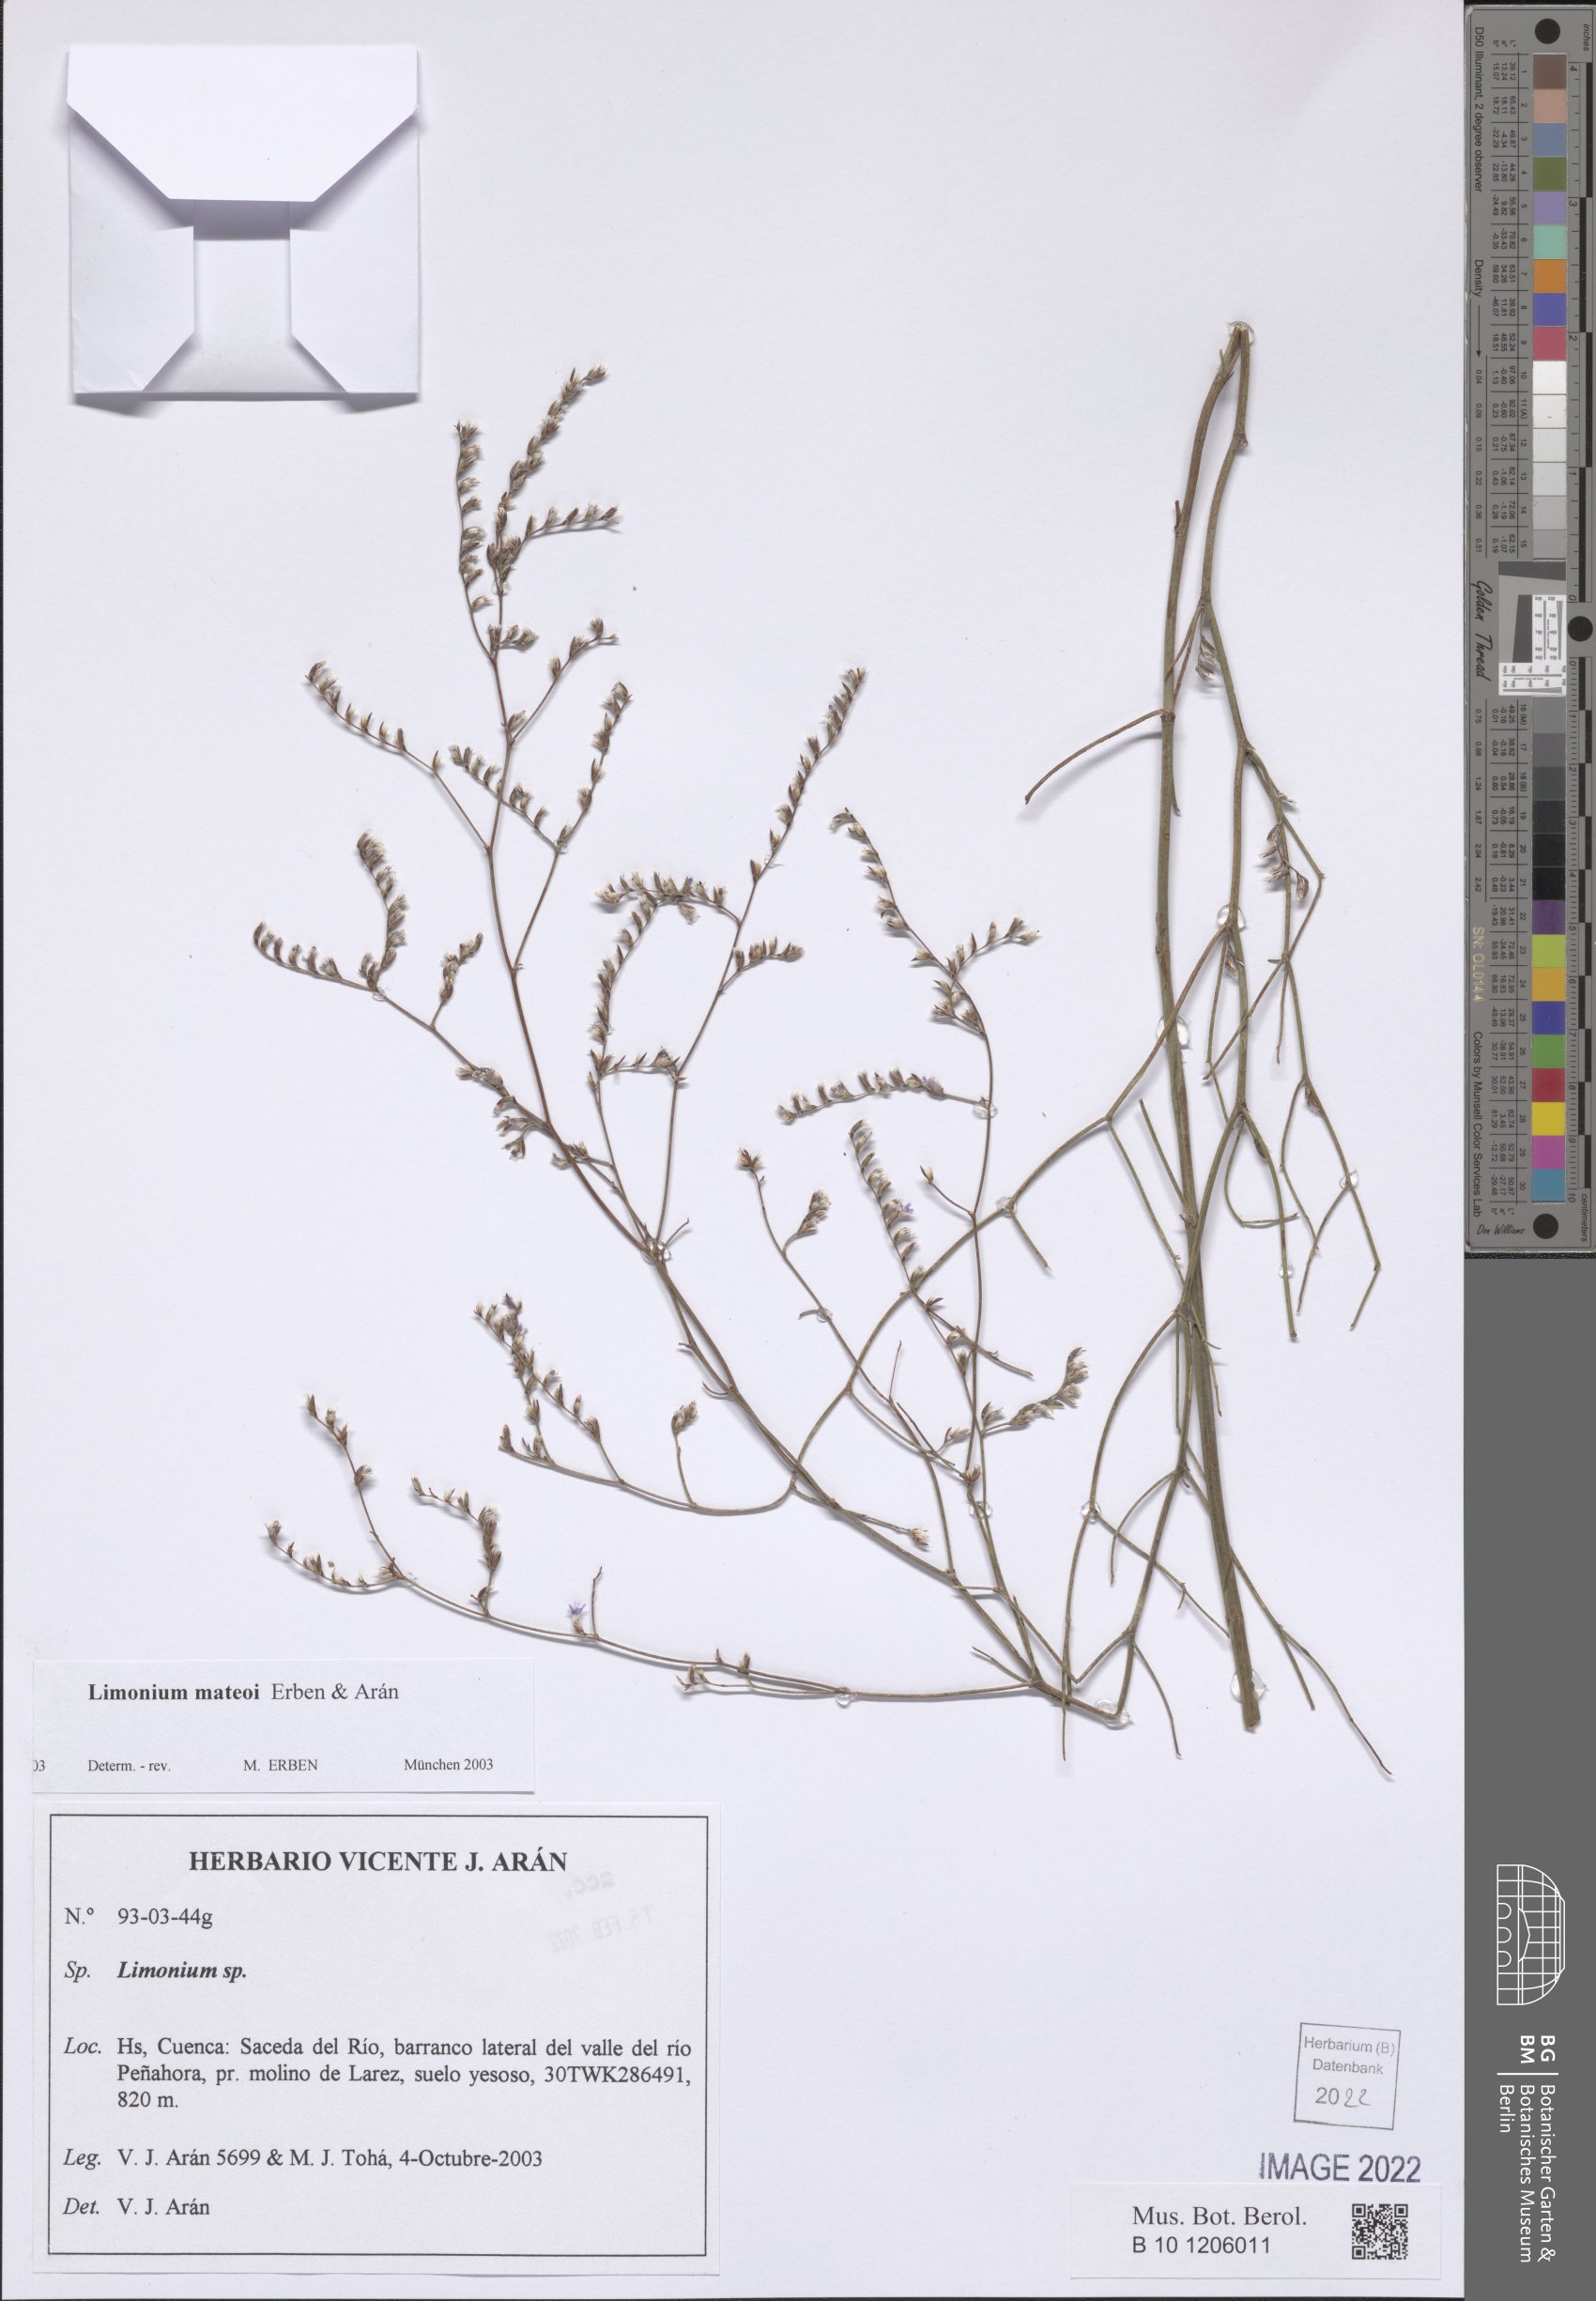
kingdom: Plantae
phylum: Tracheophyta
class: Magnoliopsida
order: Caryophyllales
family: Plumbaginaceae
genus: Limonium
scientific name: Limonium mateoi
